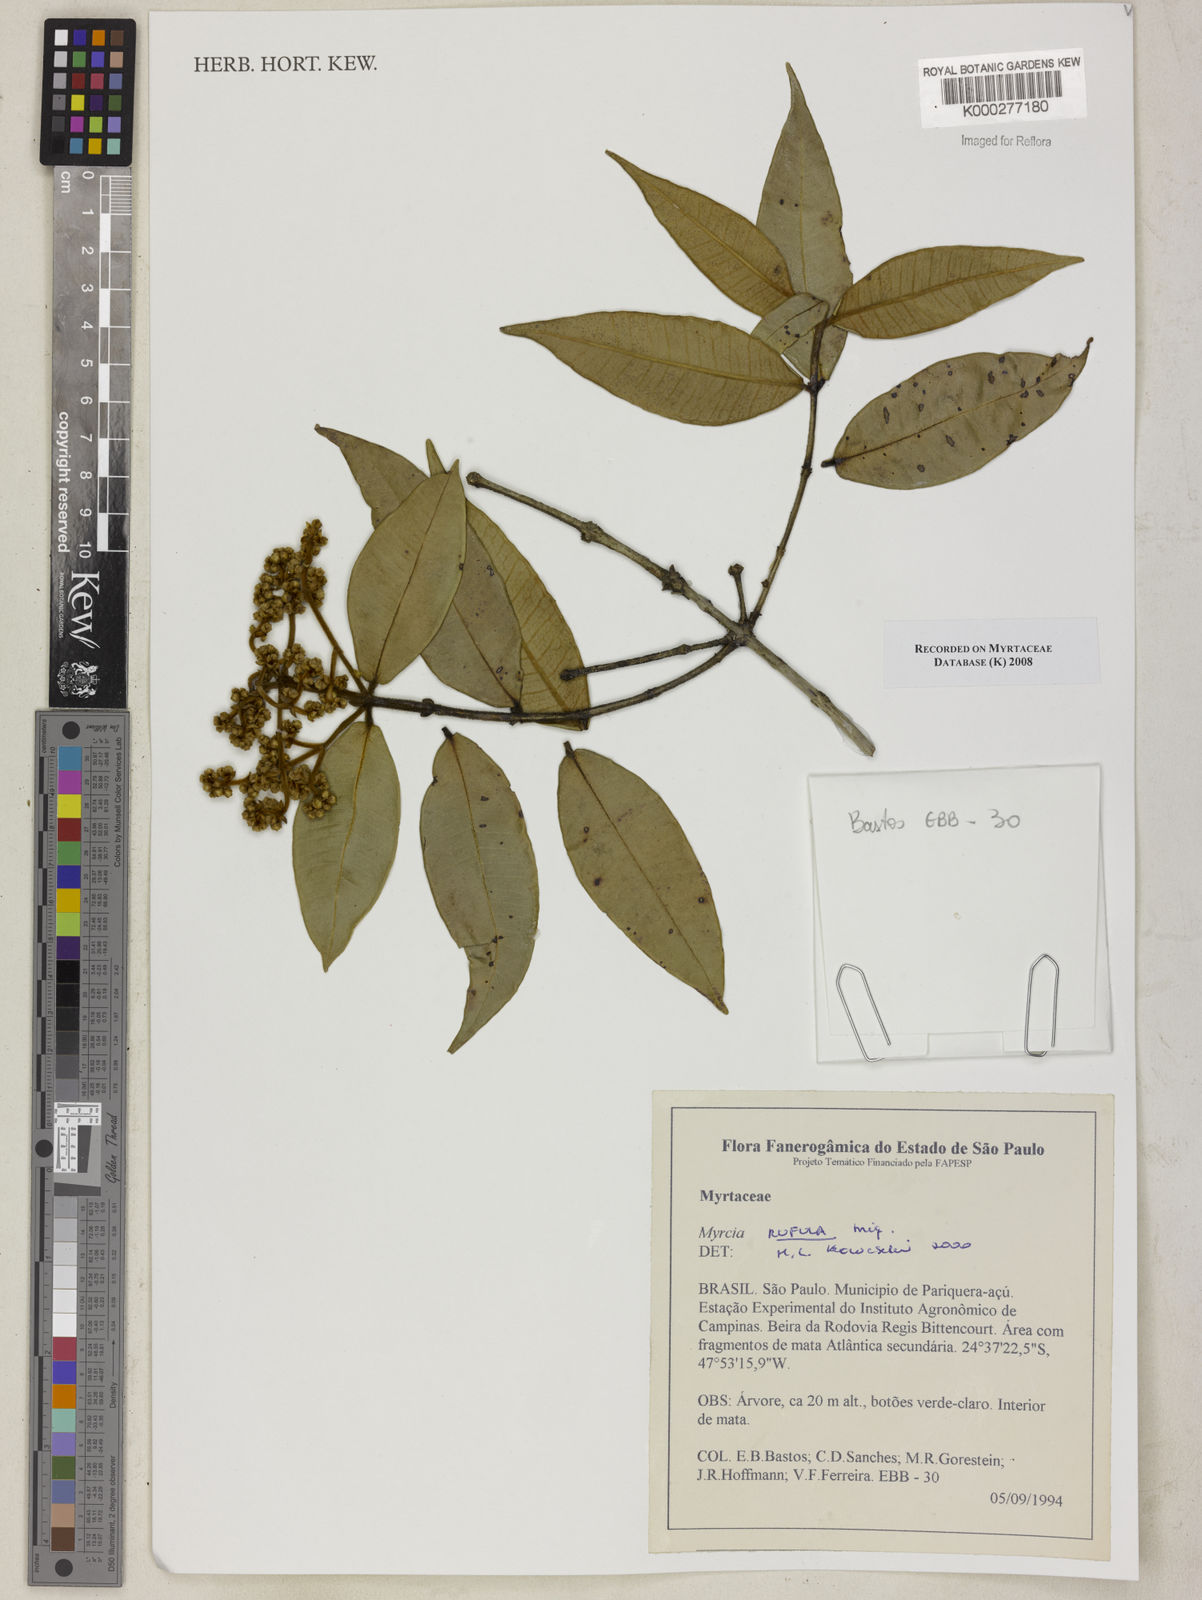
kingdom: Plantae
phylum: Tracheophyta
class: Magnoliopsida
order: Myrtales
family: Myrtaceae
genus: Myrcia
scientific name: Myrcia splendens
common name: Surinam cherry
